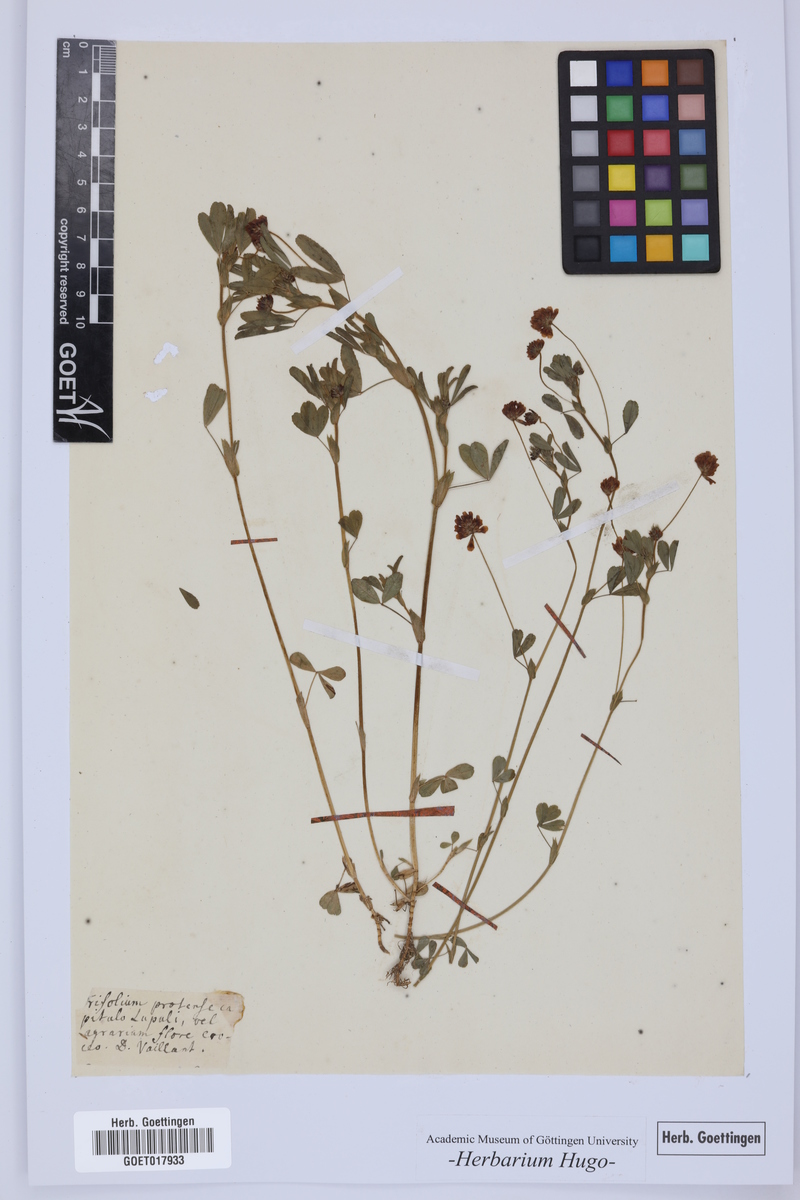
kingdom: Plantae
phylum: Tracheophyta
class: Magnoliopsida
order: Fabales
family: Fabaceae
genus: Trifolium
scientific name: Trifolium
